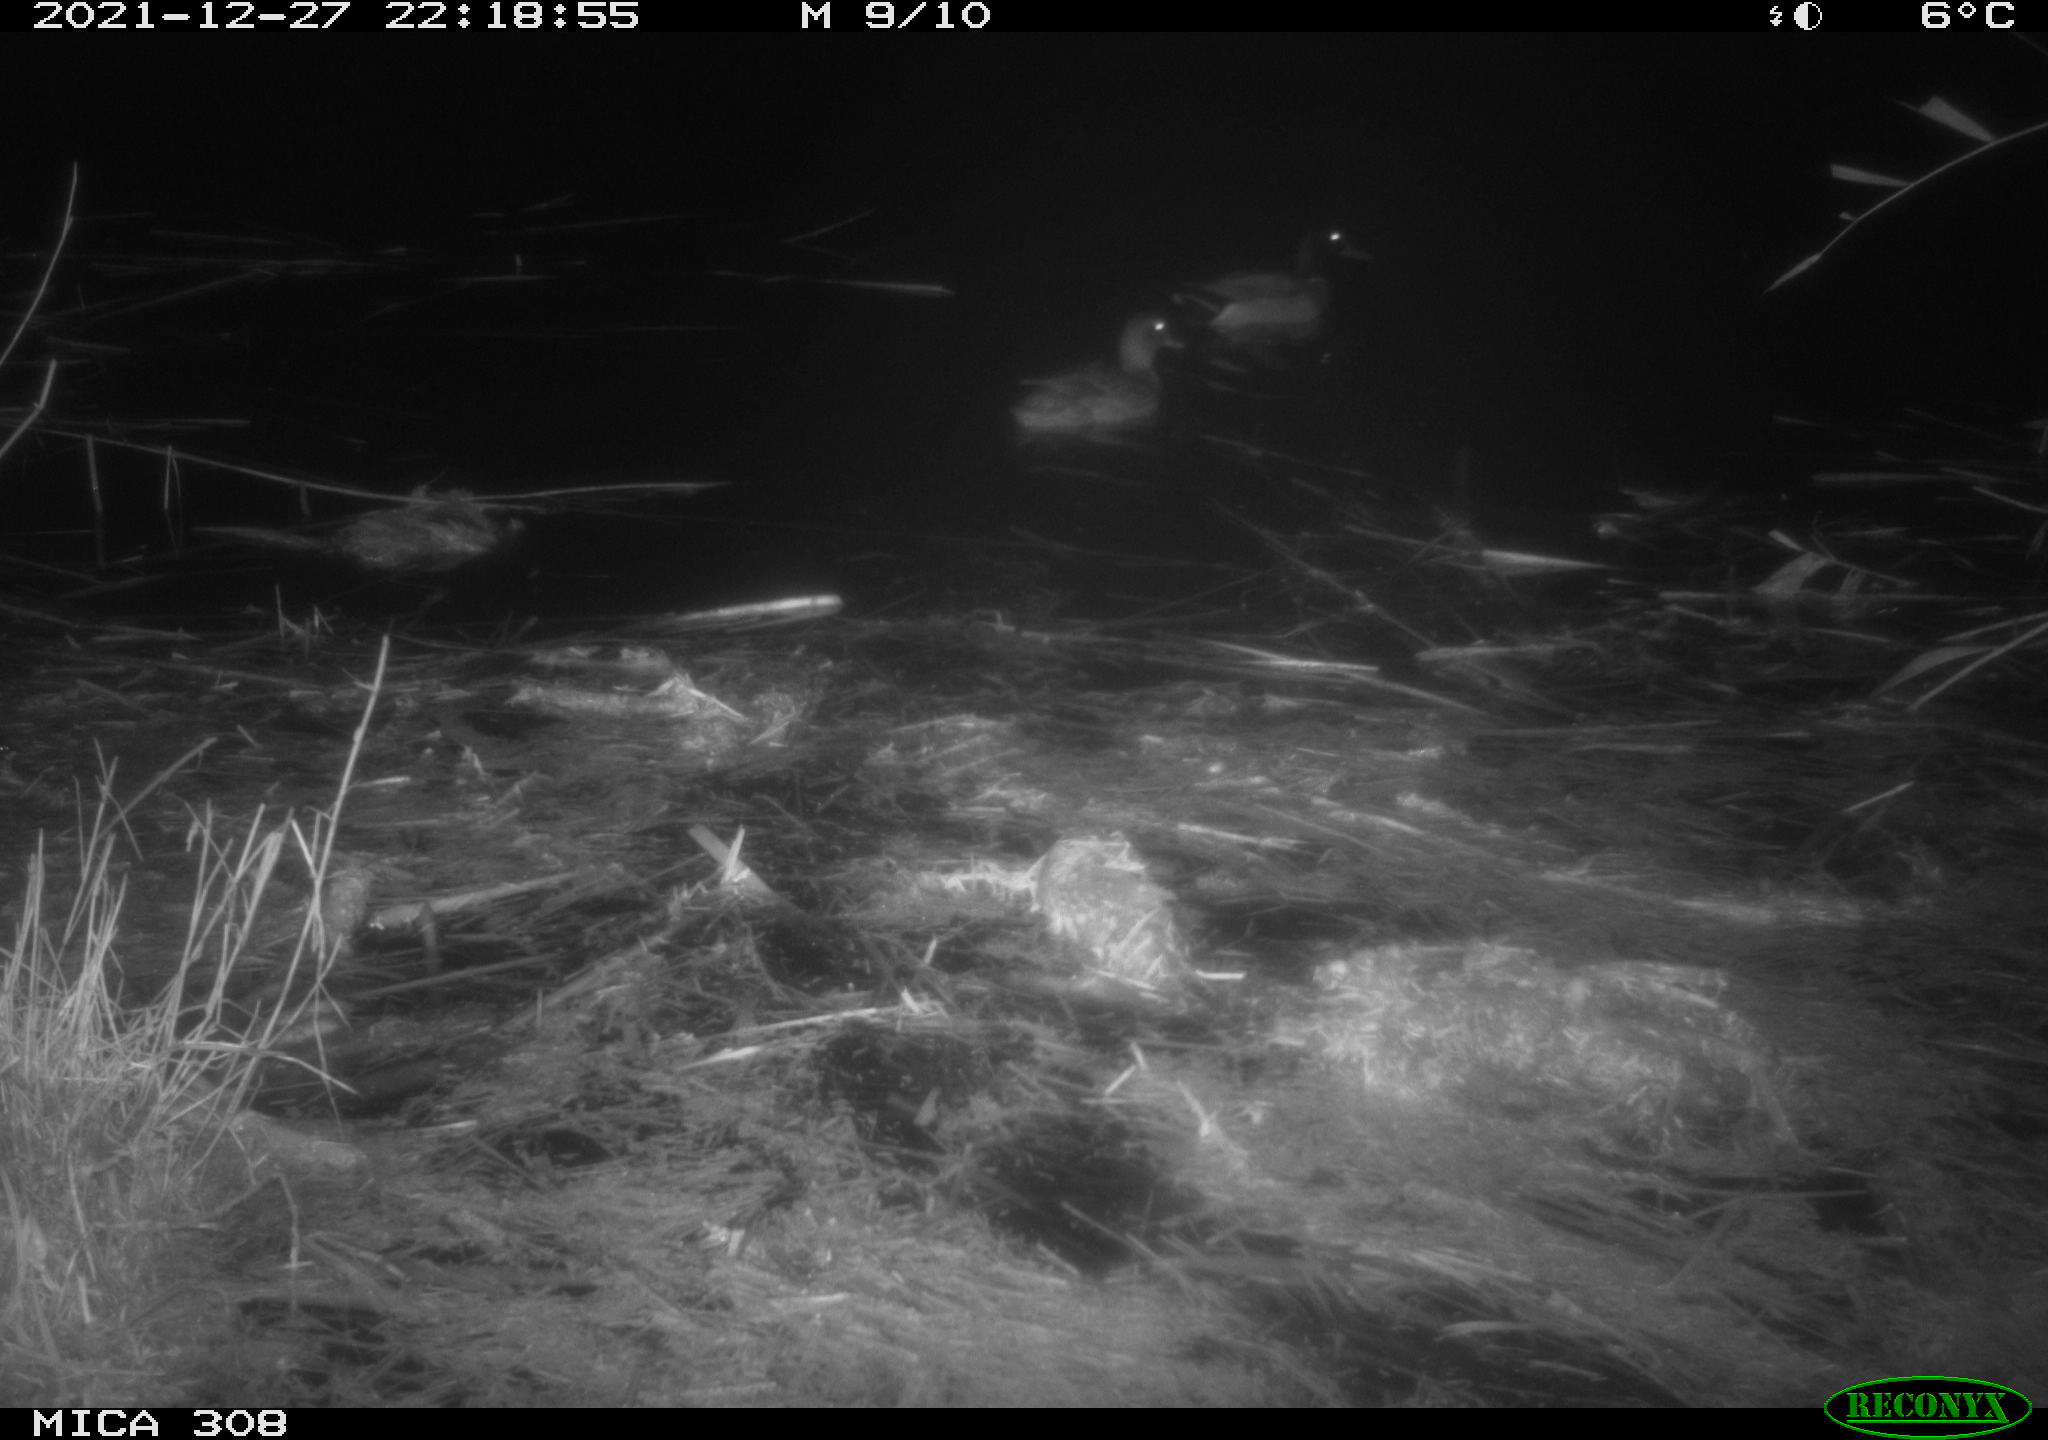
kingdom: Animalia
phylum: Chordata
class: Aves
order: Anseriformes
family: Anatidae
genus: Anas
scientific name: Anas platyrhynchos
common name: Mallard
